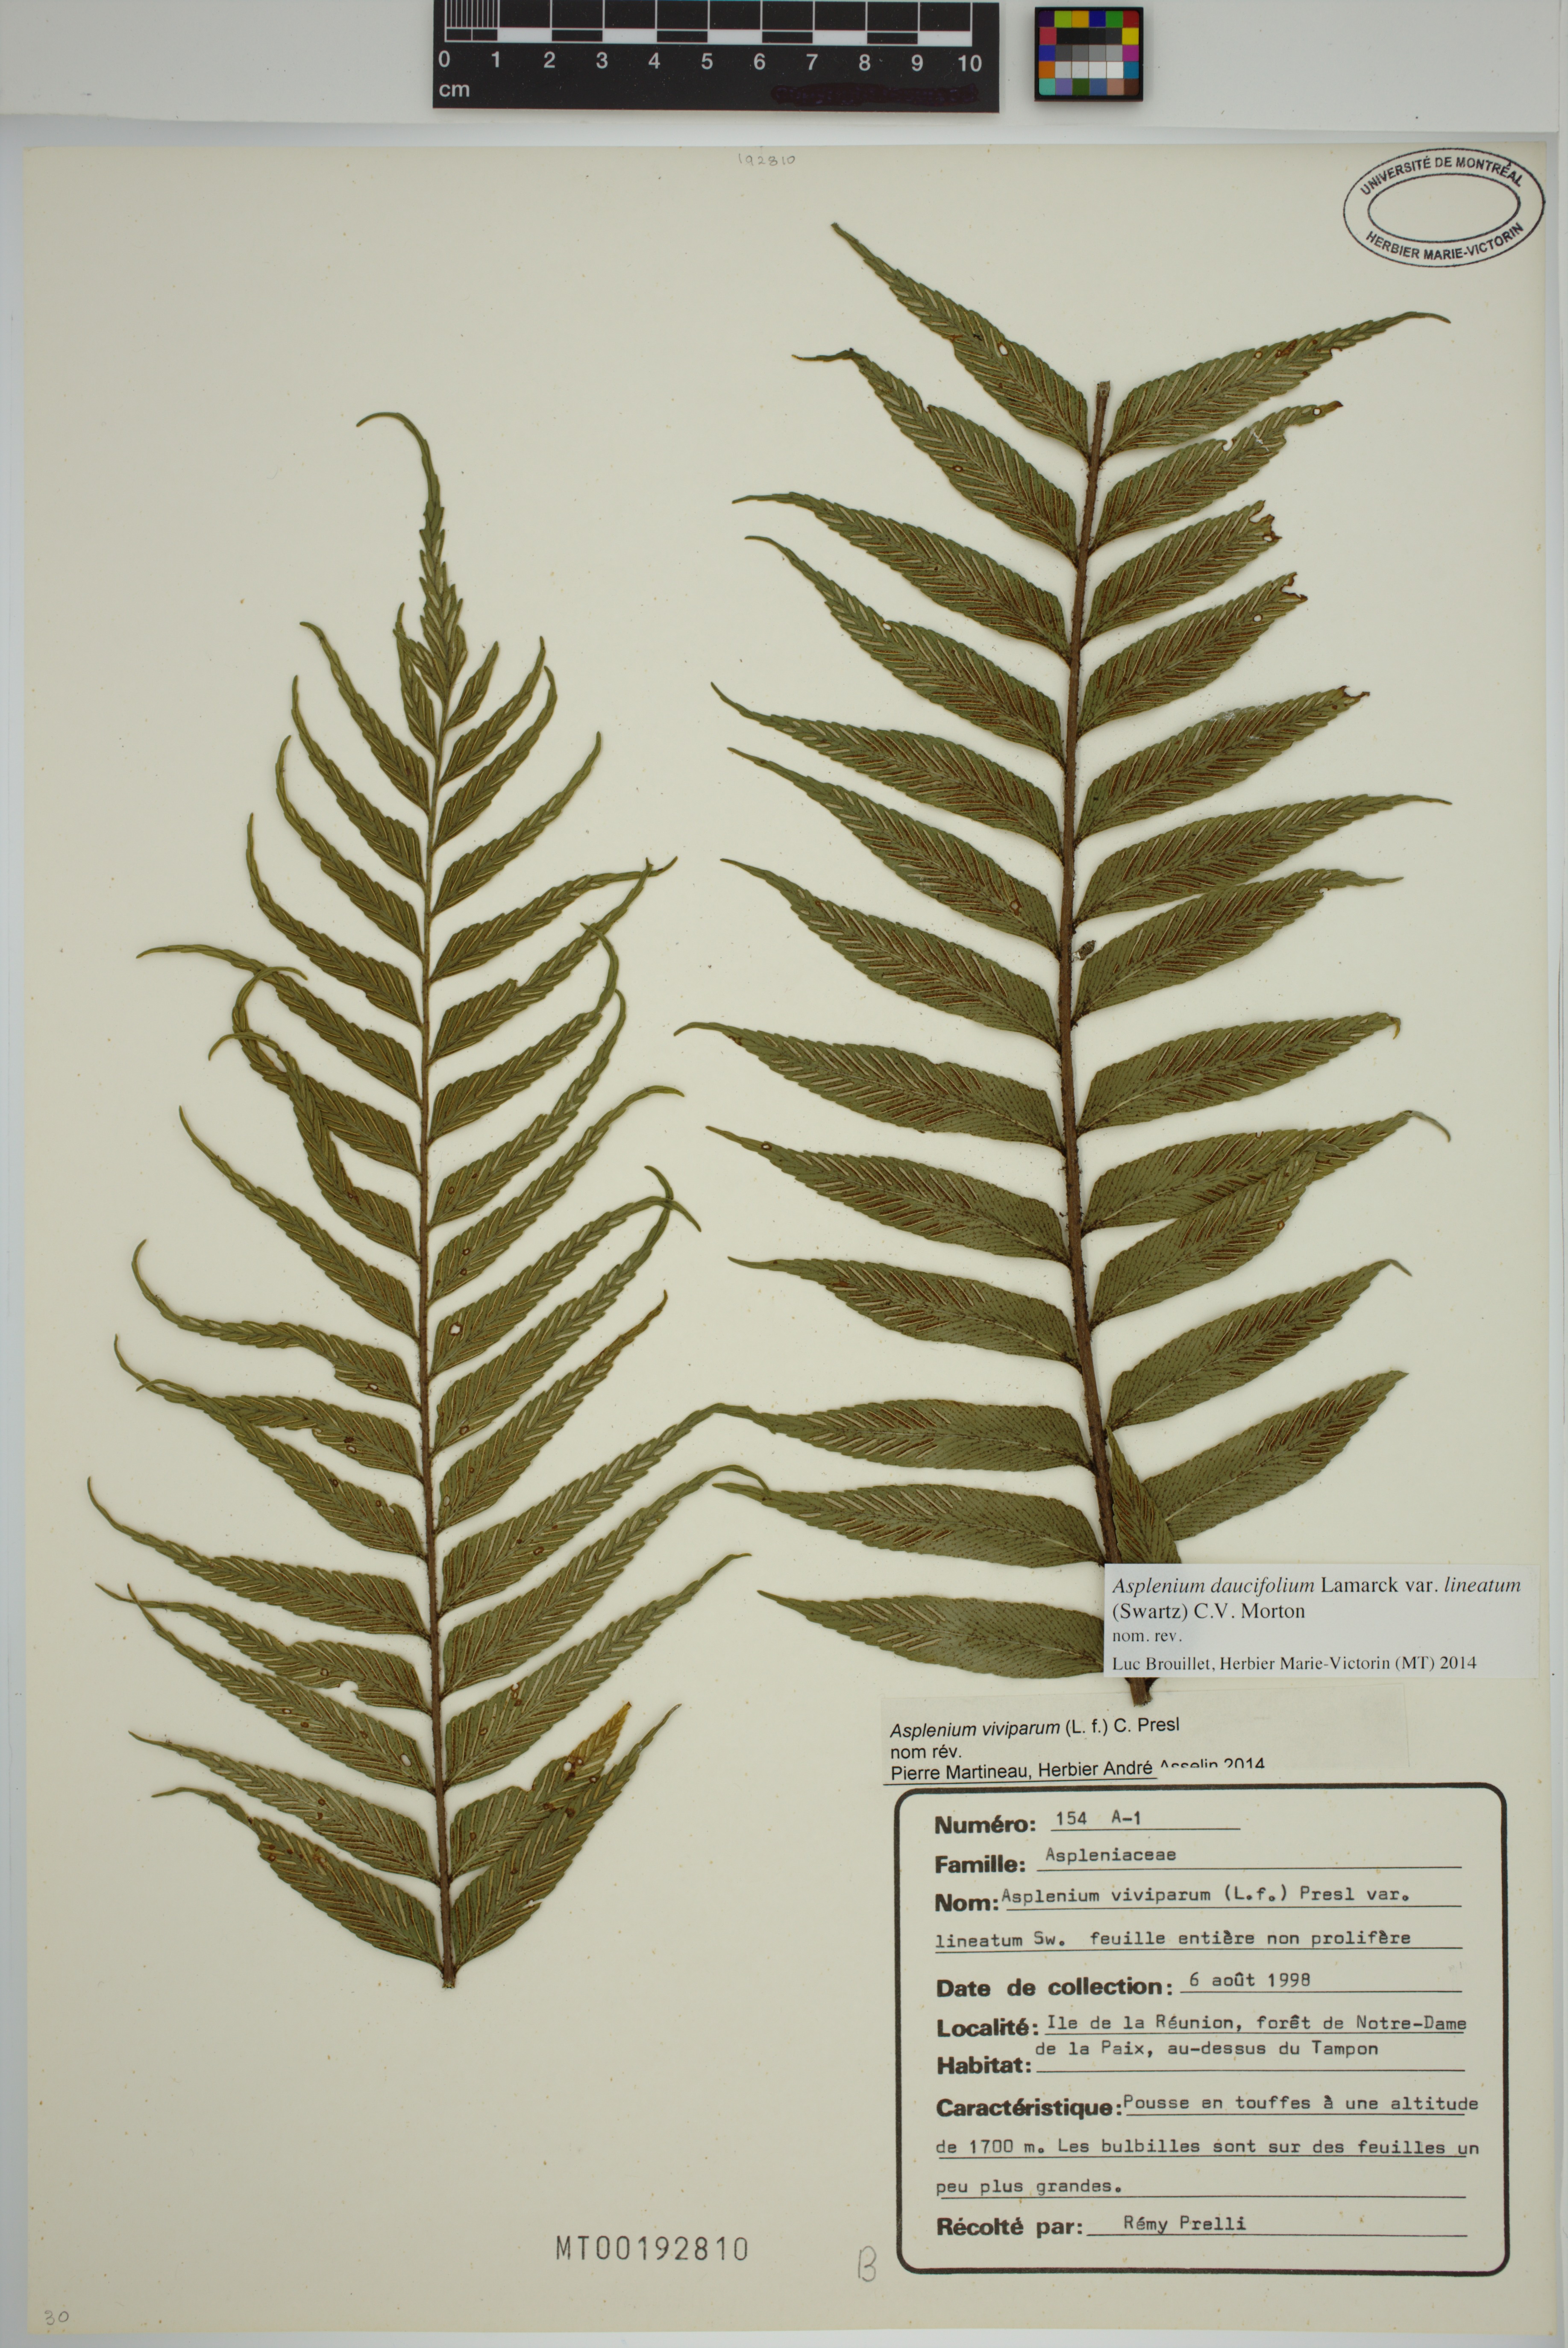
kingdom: Plantae
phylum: Tracheophyta
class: Polypodiopsida
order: Polypodiales
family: Aspleniaceae
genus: Asplenium
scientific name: Asplenium daucifolium
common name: Mauritius spleenwort
